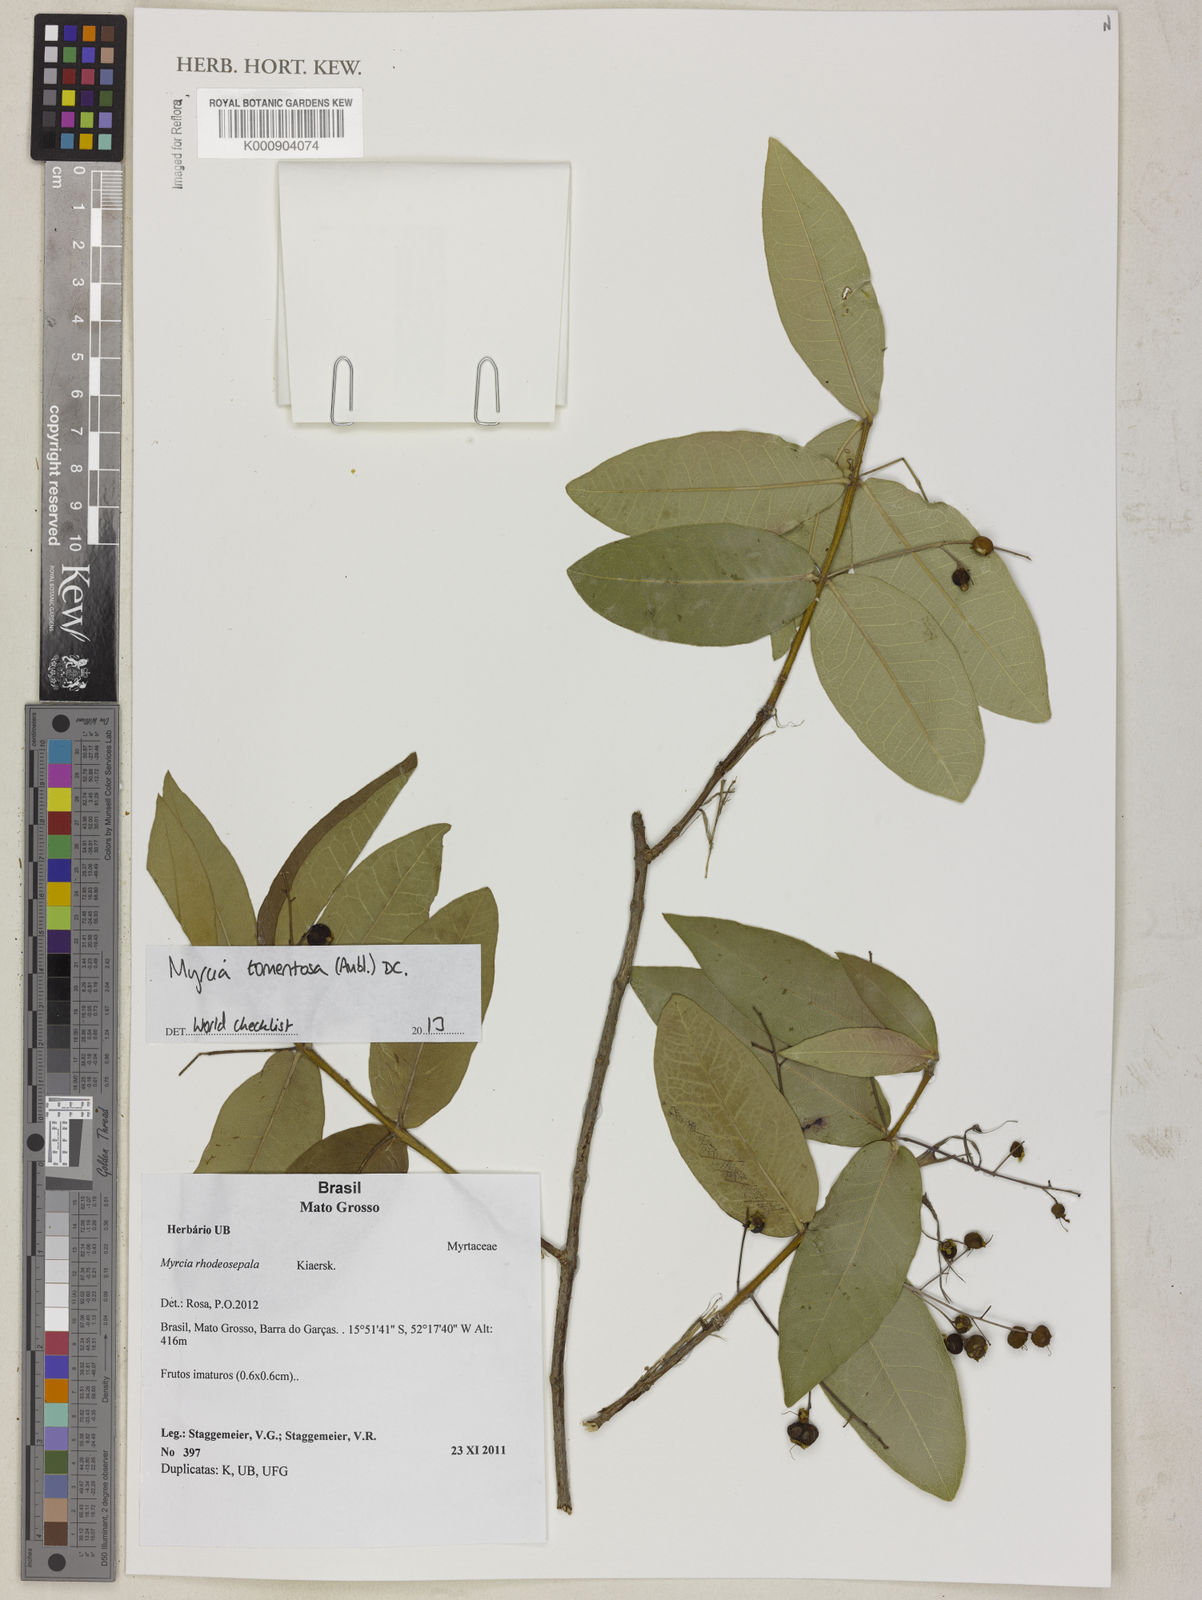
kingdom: Plantae
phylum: Tracheophyta
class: Magnoliopsida
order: Myrtales
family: Myrtaceae
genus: Myrcia
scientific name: Myrcia tomentosa
